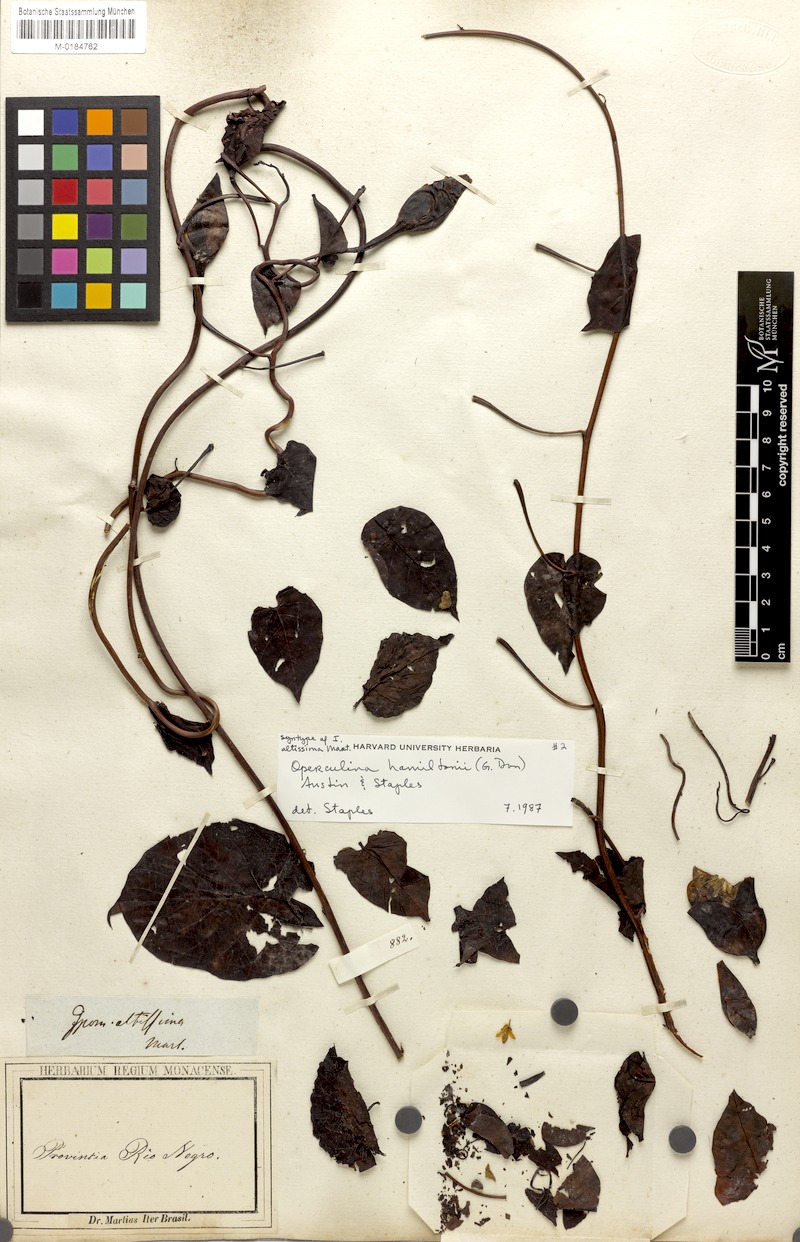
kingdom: Plantae
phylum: Tracheophyta
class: Magnoliopsida
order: Solanales
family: Convolvulaceae
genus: Operculina
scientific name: Operculina hamiltonii
